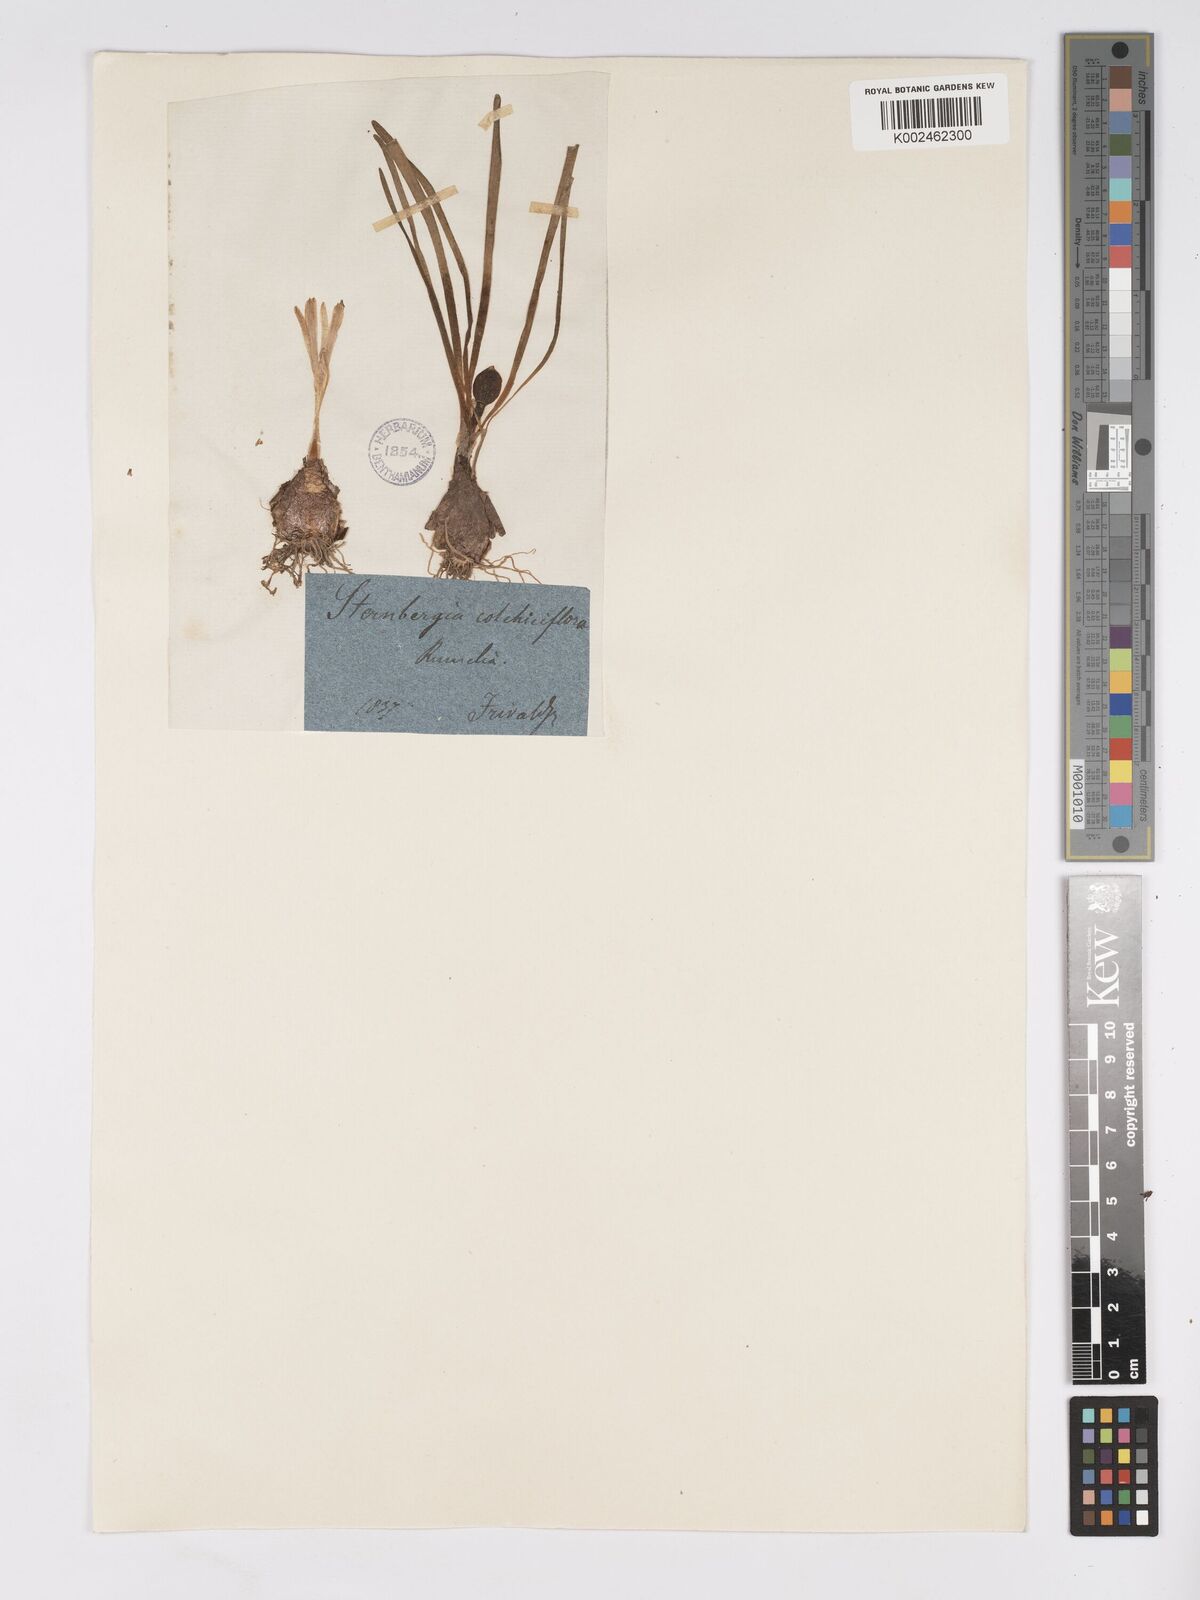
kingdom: Plantae
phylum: Tracheophyta
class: Liliopsida
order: Asparagales
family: Amaryllidaceae
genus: Sternbergia
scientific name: Sternbergia colchiciflora
